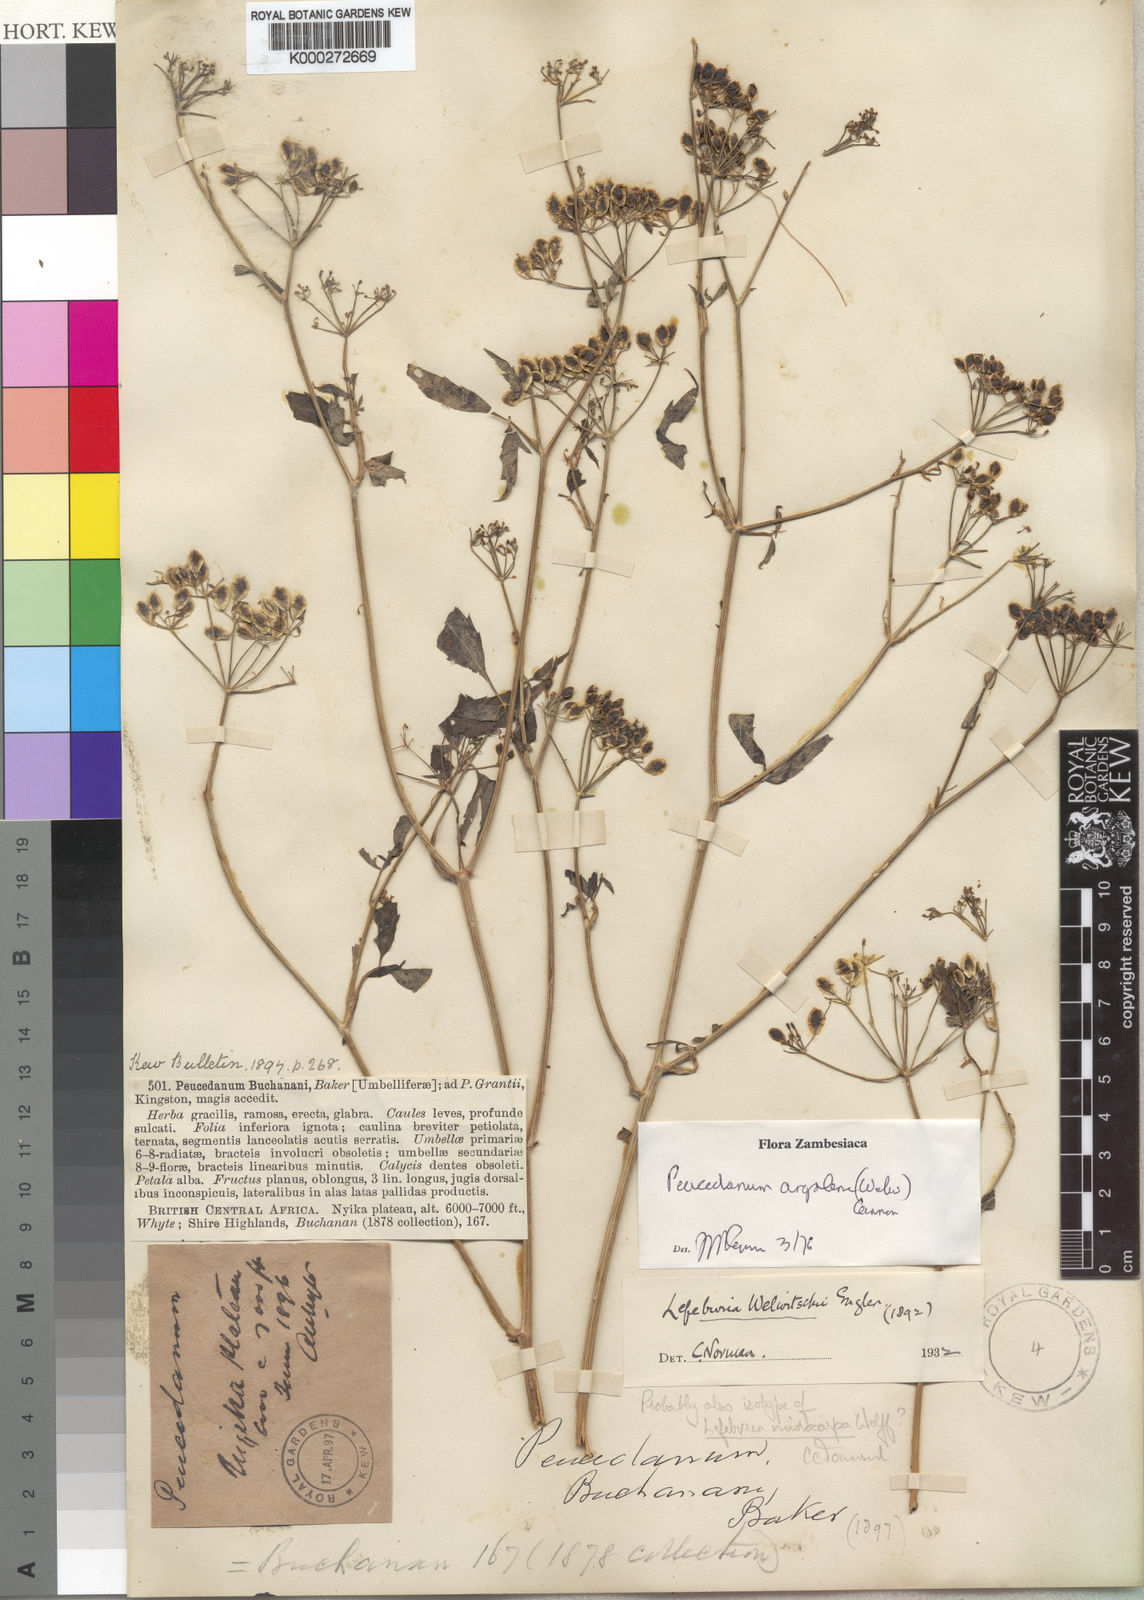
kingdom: Plantae
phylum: Tracheophyta
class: Magnoliopsida
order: Apiales
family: Apiaceae
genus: Lefebvrea
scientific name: Lefebvrea grantii
